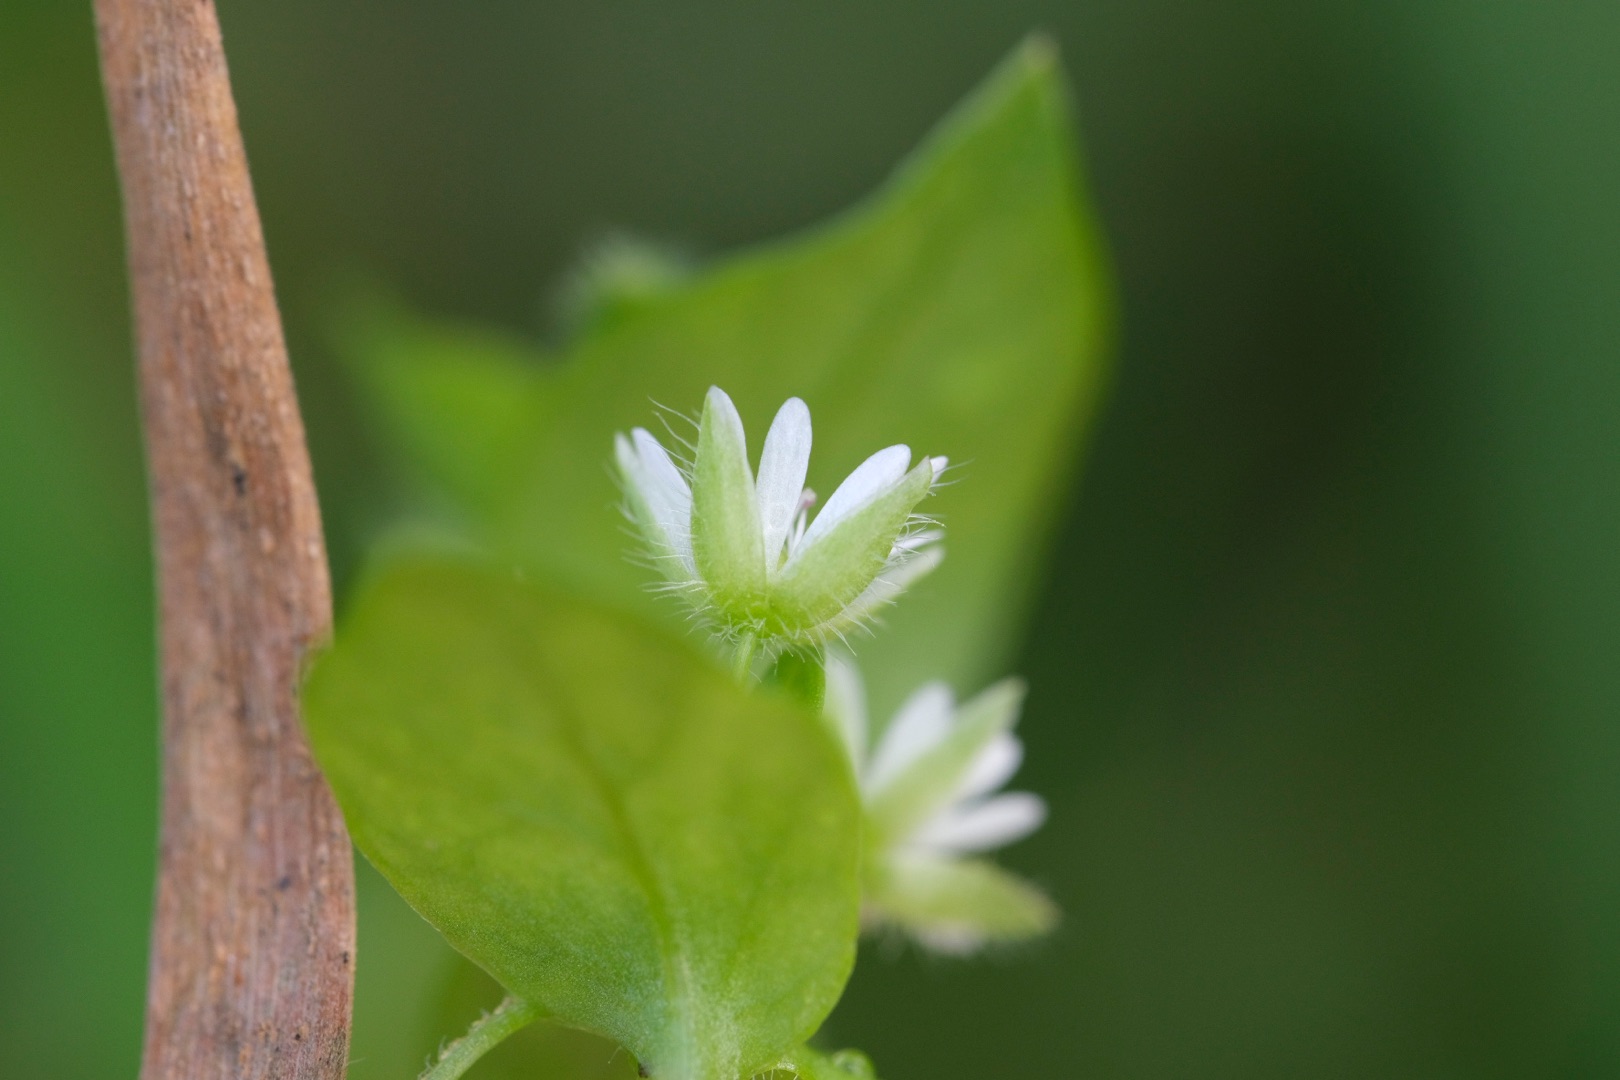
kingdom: Plantae
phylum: Tracheophyta
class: Magnoliopsida
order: Caryophyllales
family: Caryophyllaceae
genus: Stellaria
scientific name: Stellaria media
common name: Almindelig fuglegræs
